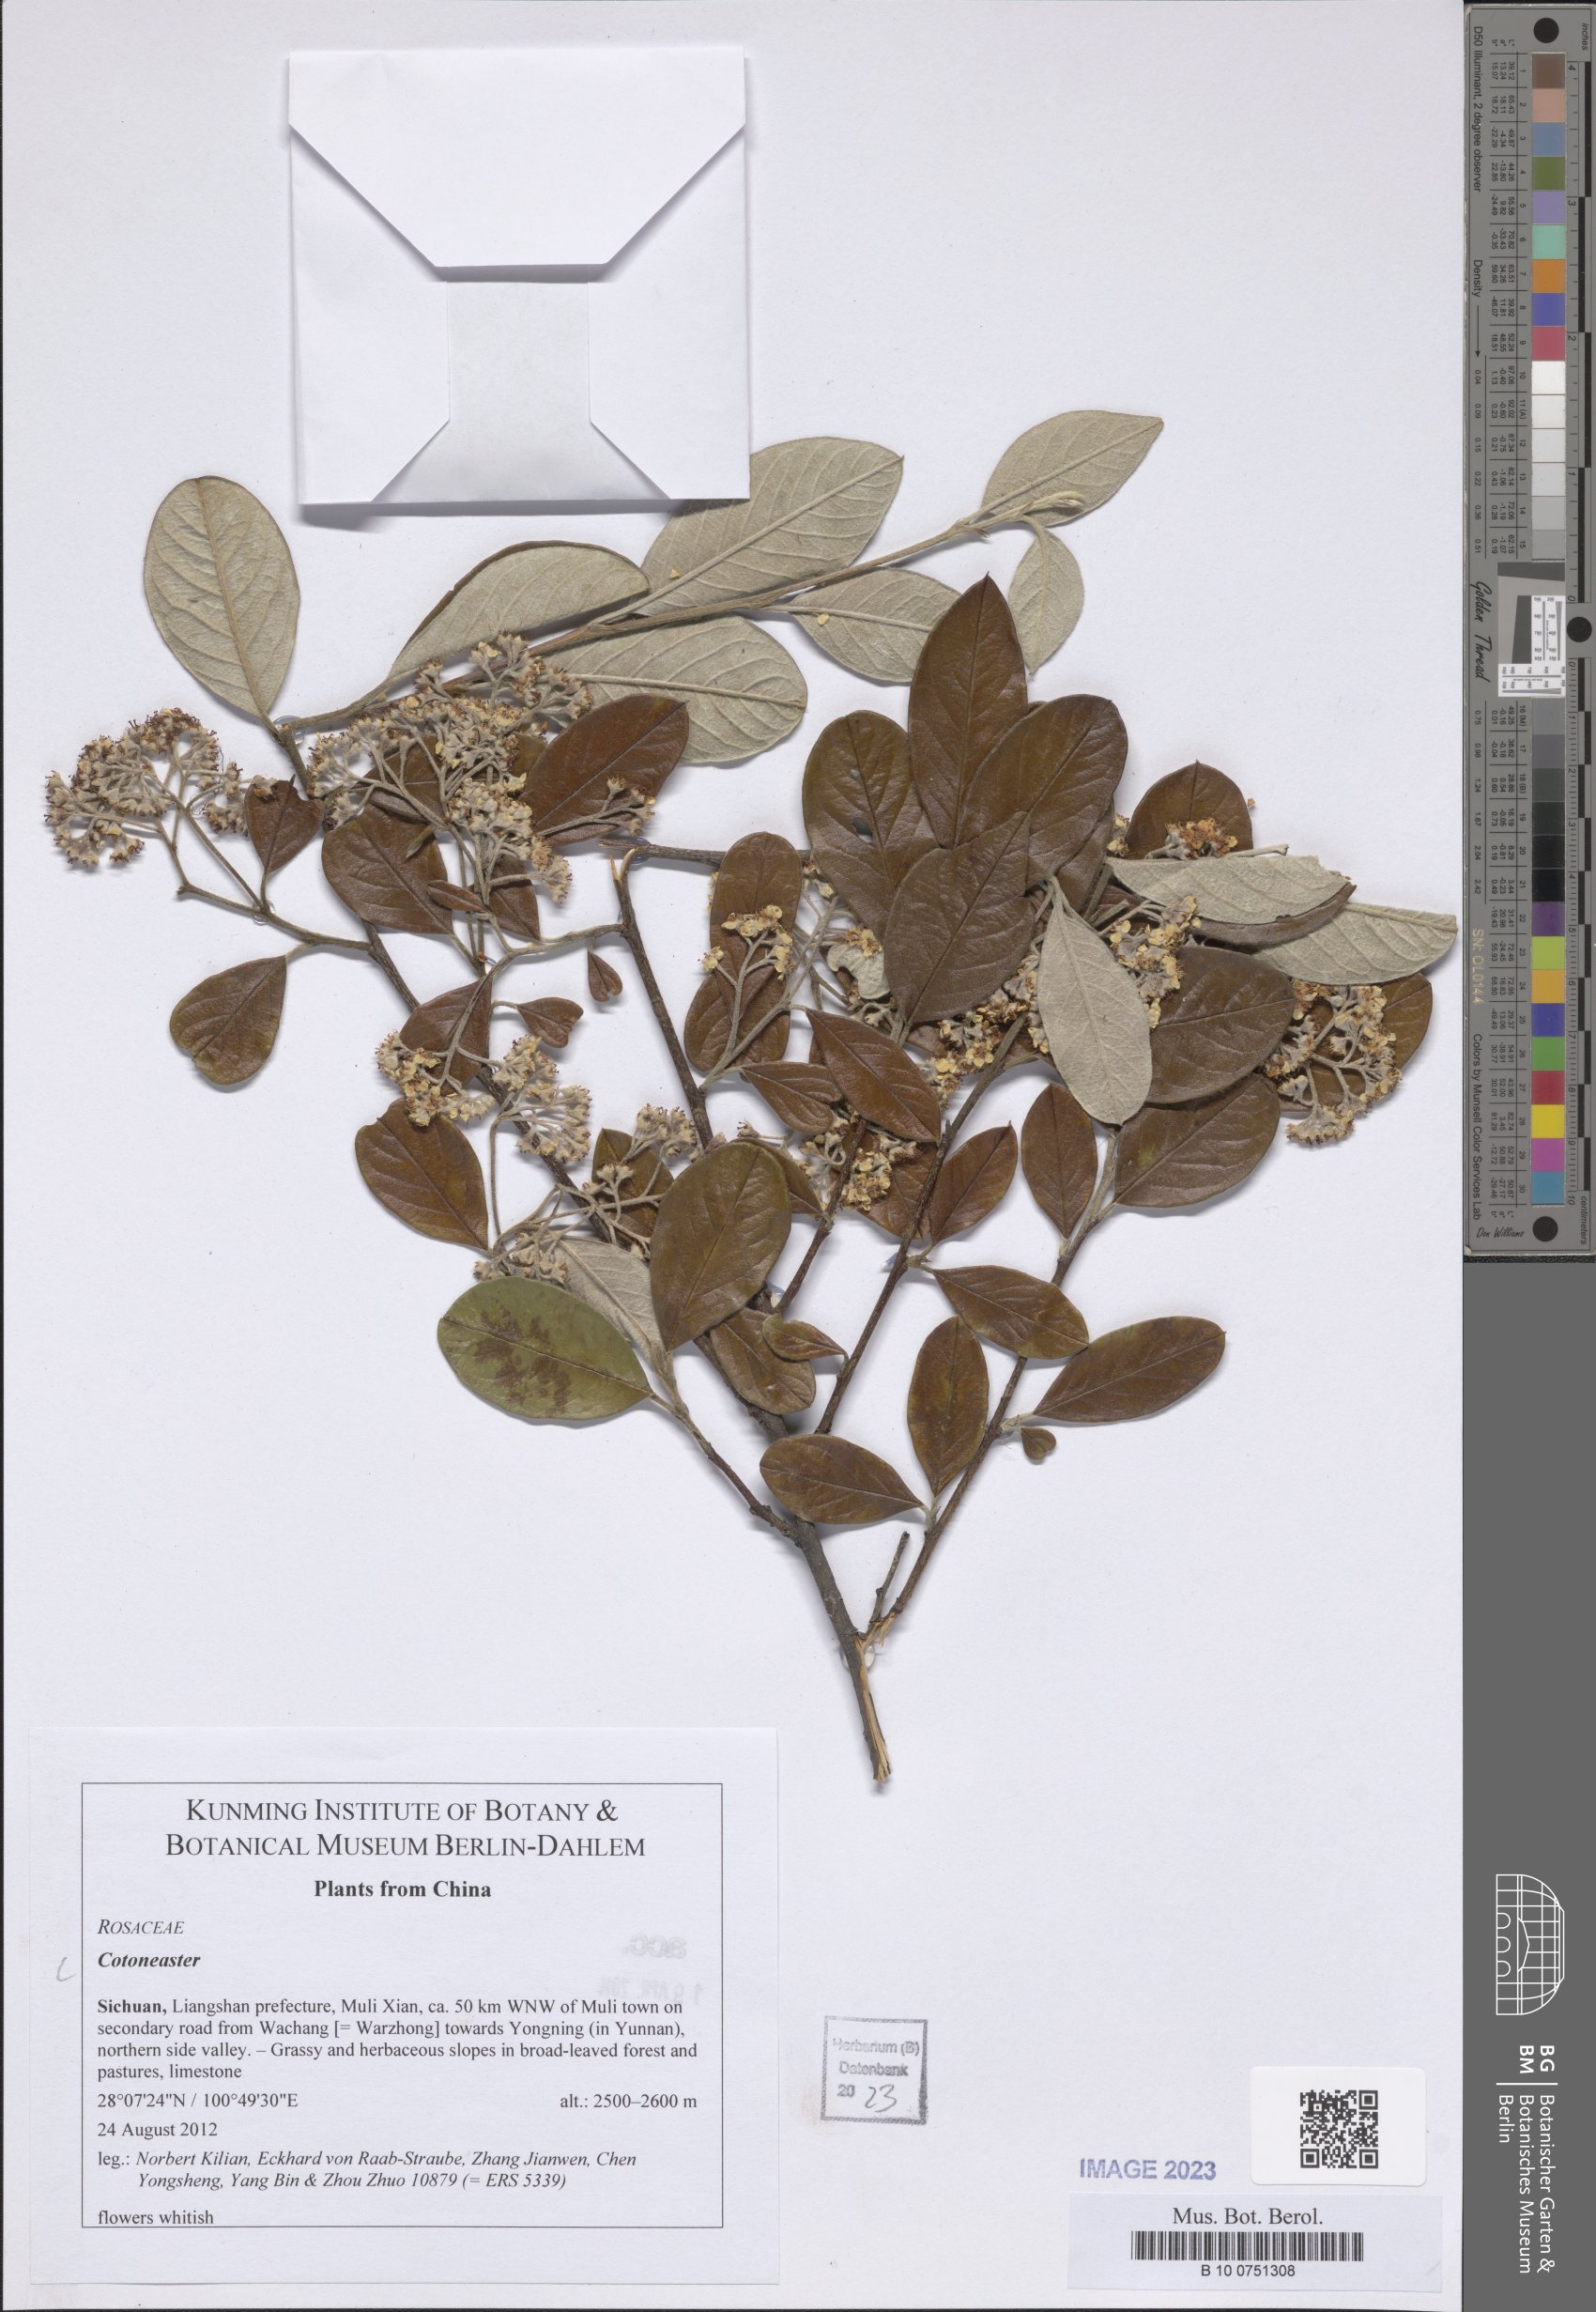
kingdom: Plantae
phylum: Tracheophyta
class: Magnoliopsida
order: Rosales
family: Rosaceae
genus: Cotoneaster
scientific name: Cotoneaster
